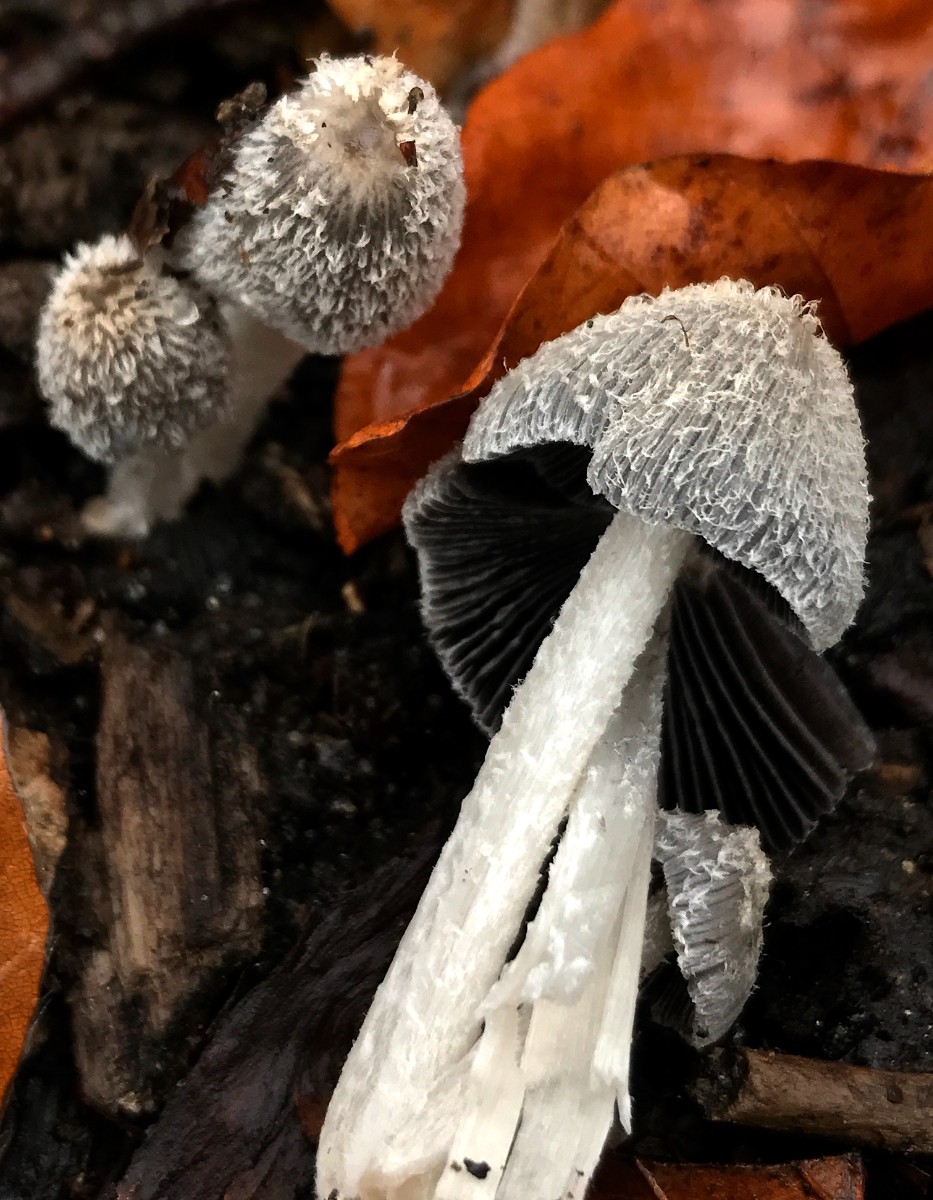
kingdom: Fungi
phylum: Basidiomycota
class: Agaricomycetes
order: Agaricales
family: Psathyrellaceae
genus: Coprinopsis
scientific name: Coprinopsis lagopus
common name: dunstokket blækhat
